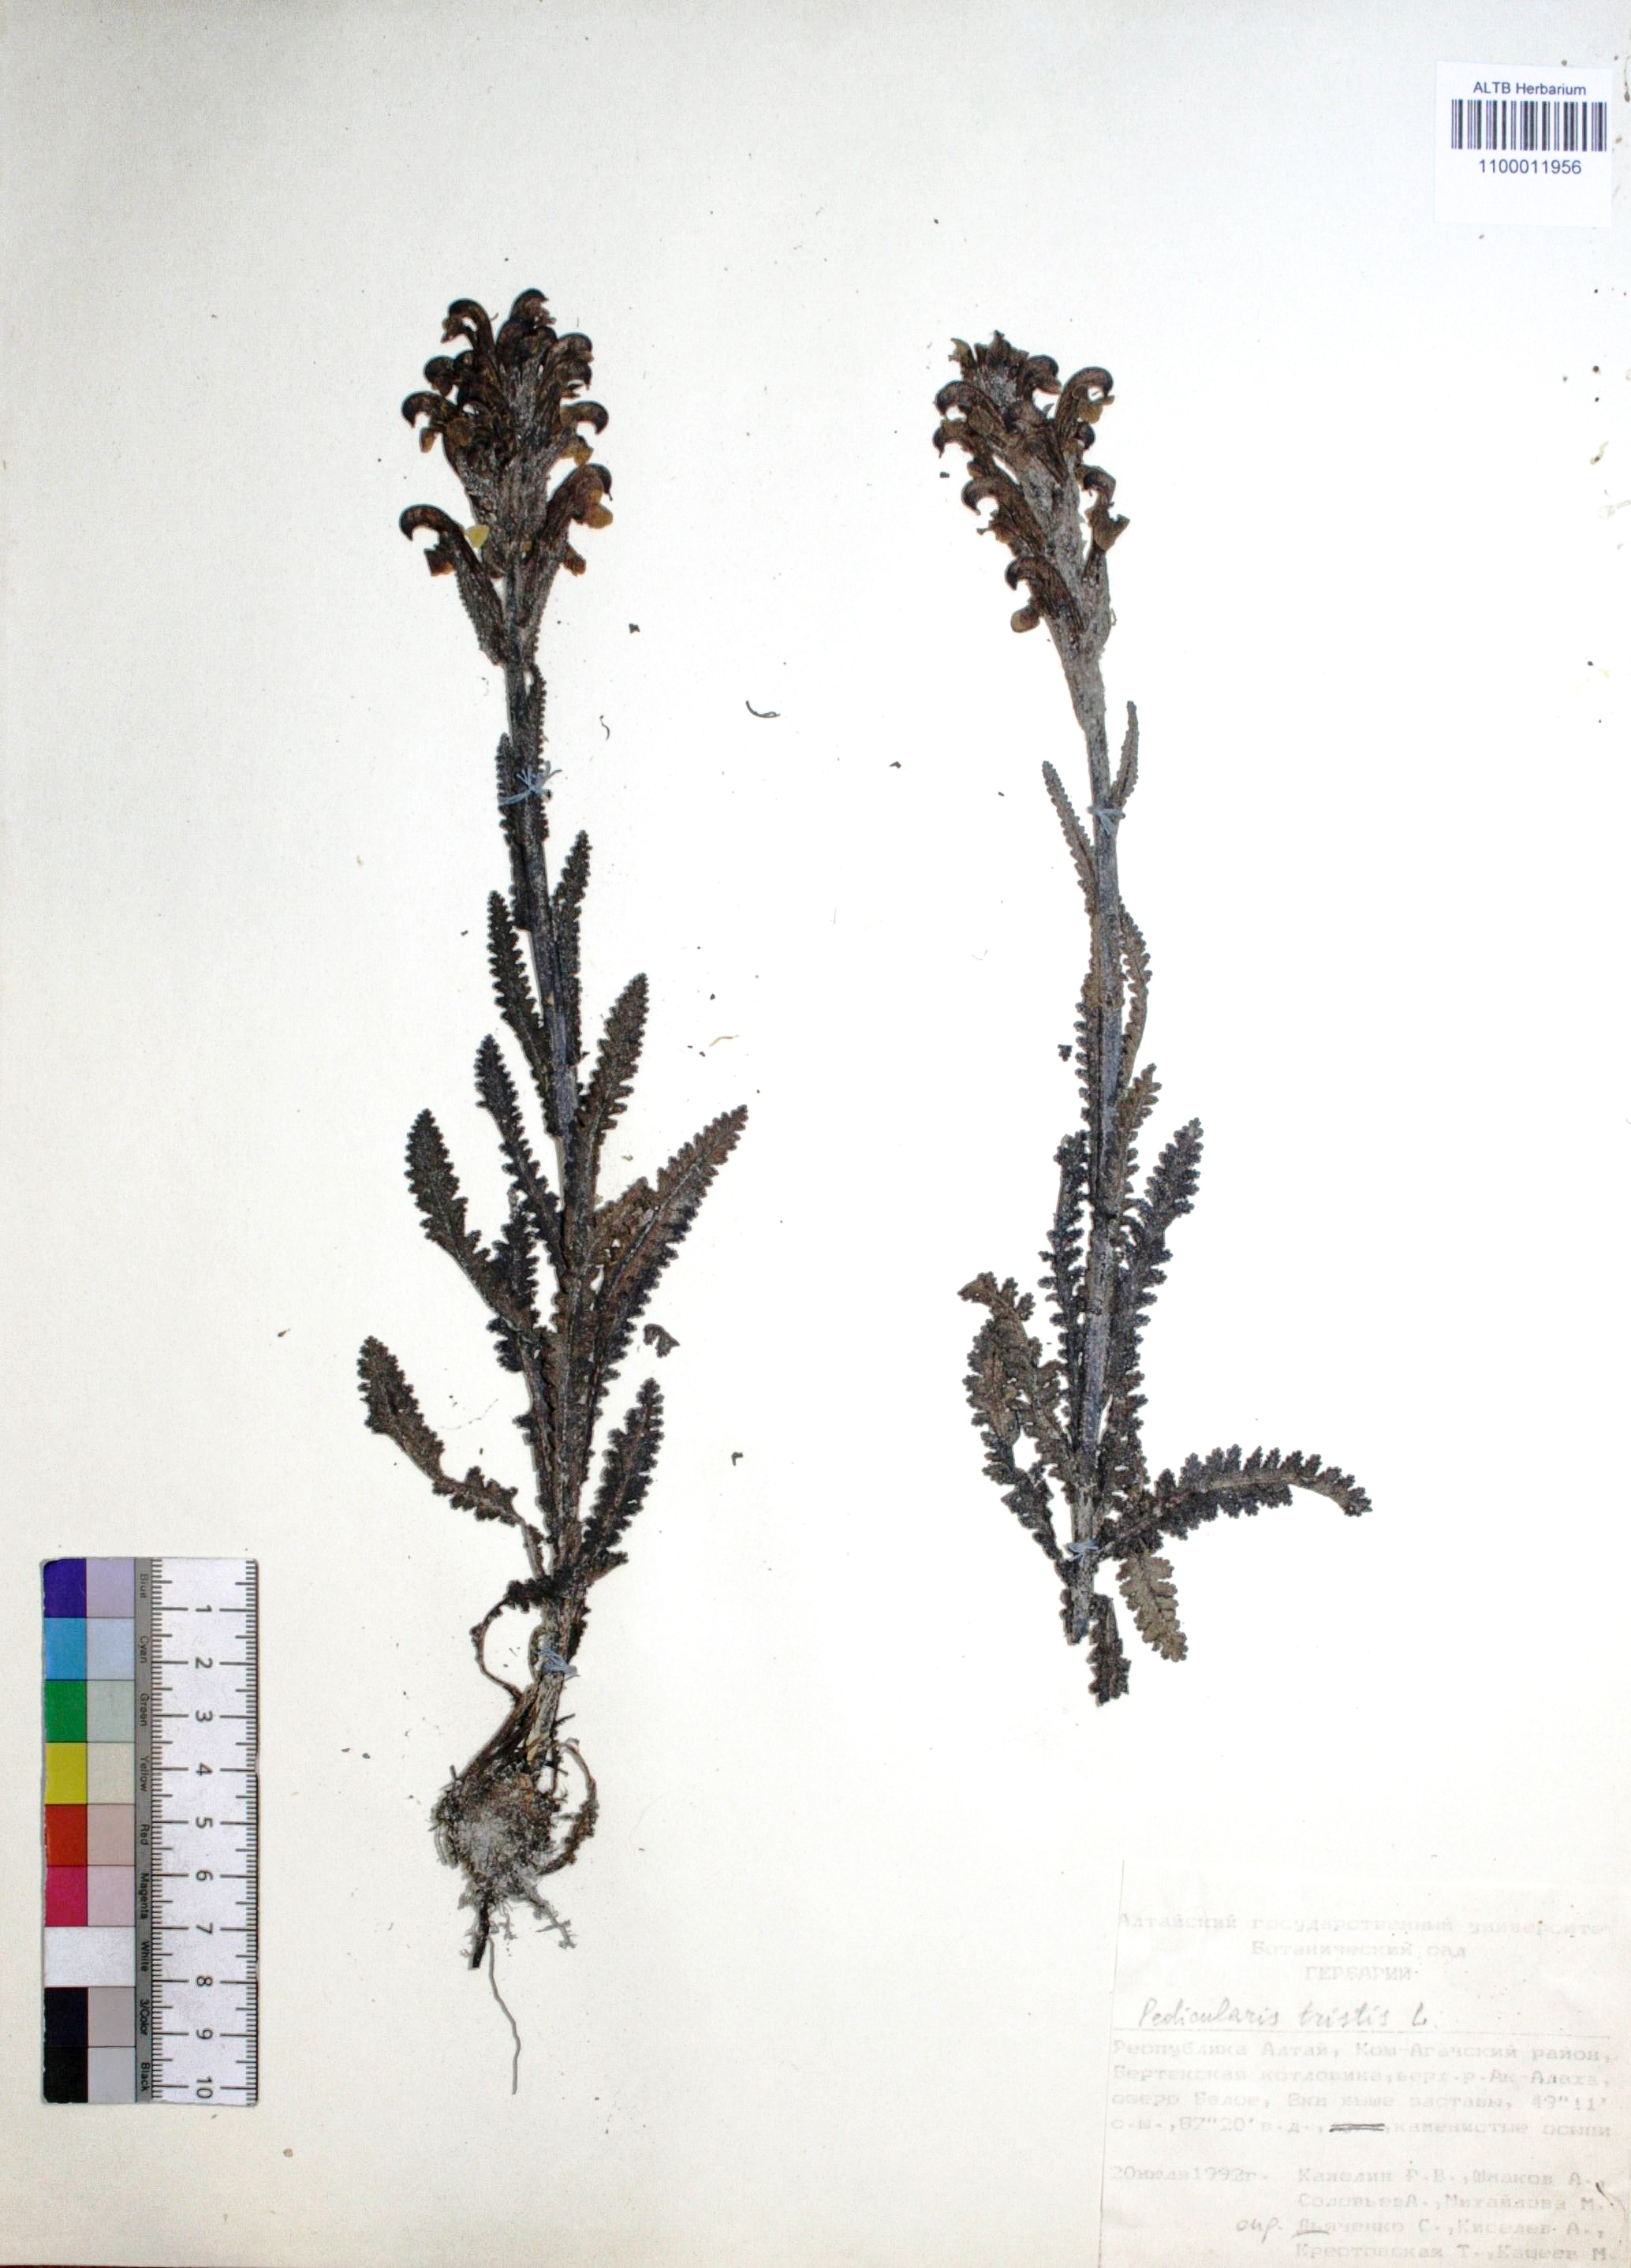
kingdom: Plantae
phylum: Tracheophyta
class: Magnoliopsida
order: Lamiales
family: Orobanchaceae
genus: Pedicularis
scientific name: Pedicularis tristis
